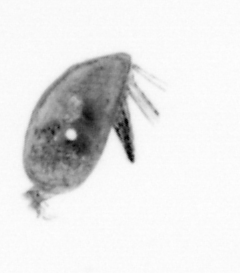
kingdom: Animalia
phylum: Arthropoda
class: Maxillopoda
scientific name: Maxillopoda
